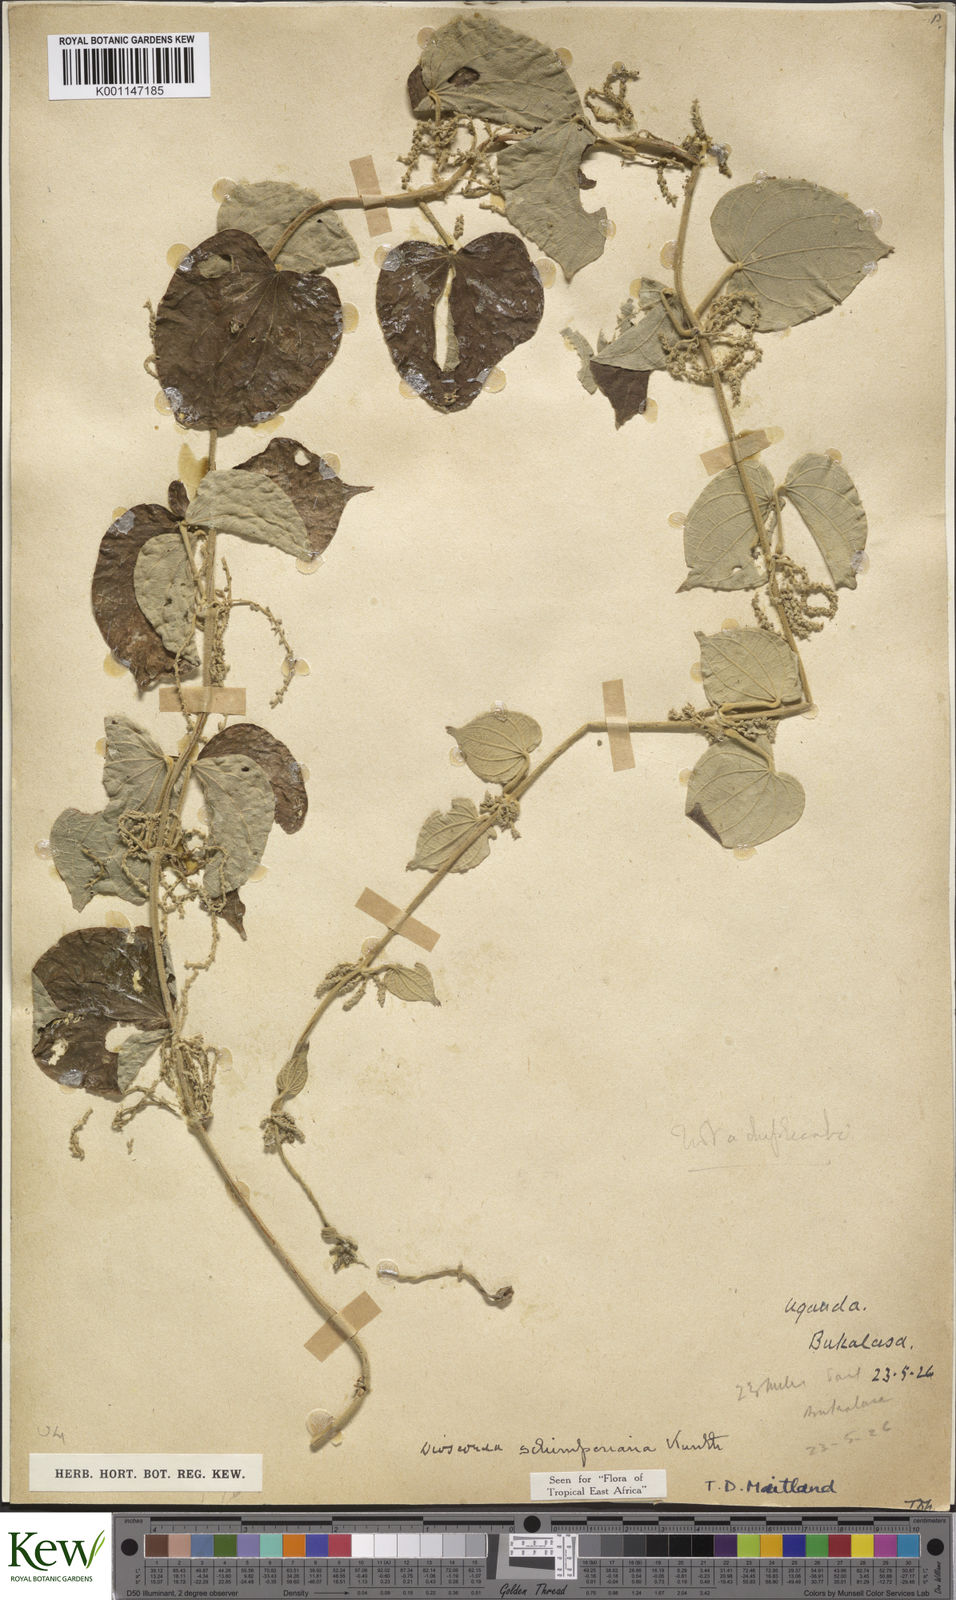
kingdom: Plantae
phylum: Tracheophyta
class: Liliopsida
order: Dioscoreales
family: Dioscoreaceae
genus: Dioscorea
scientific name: Dioscorea schimperiana
